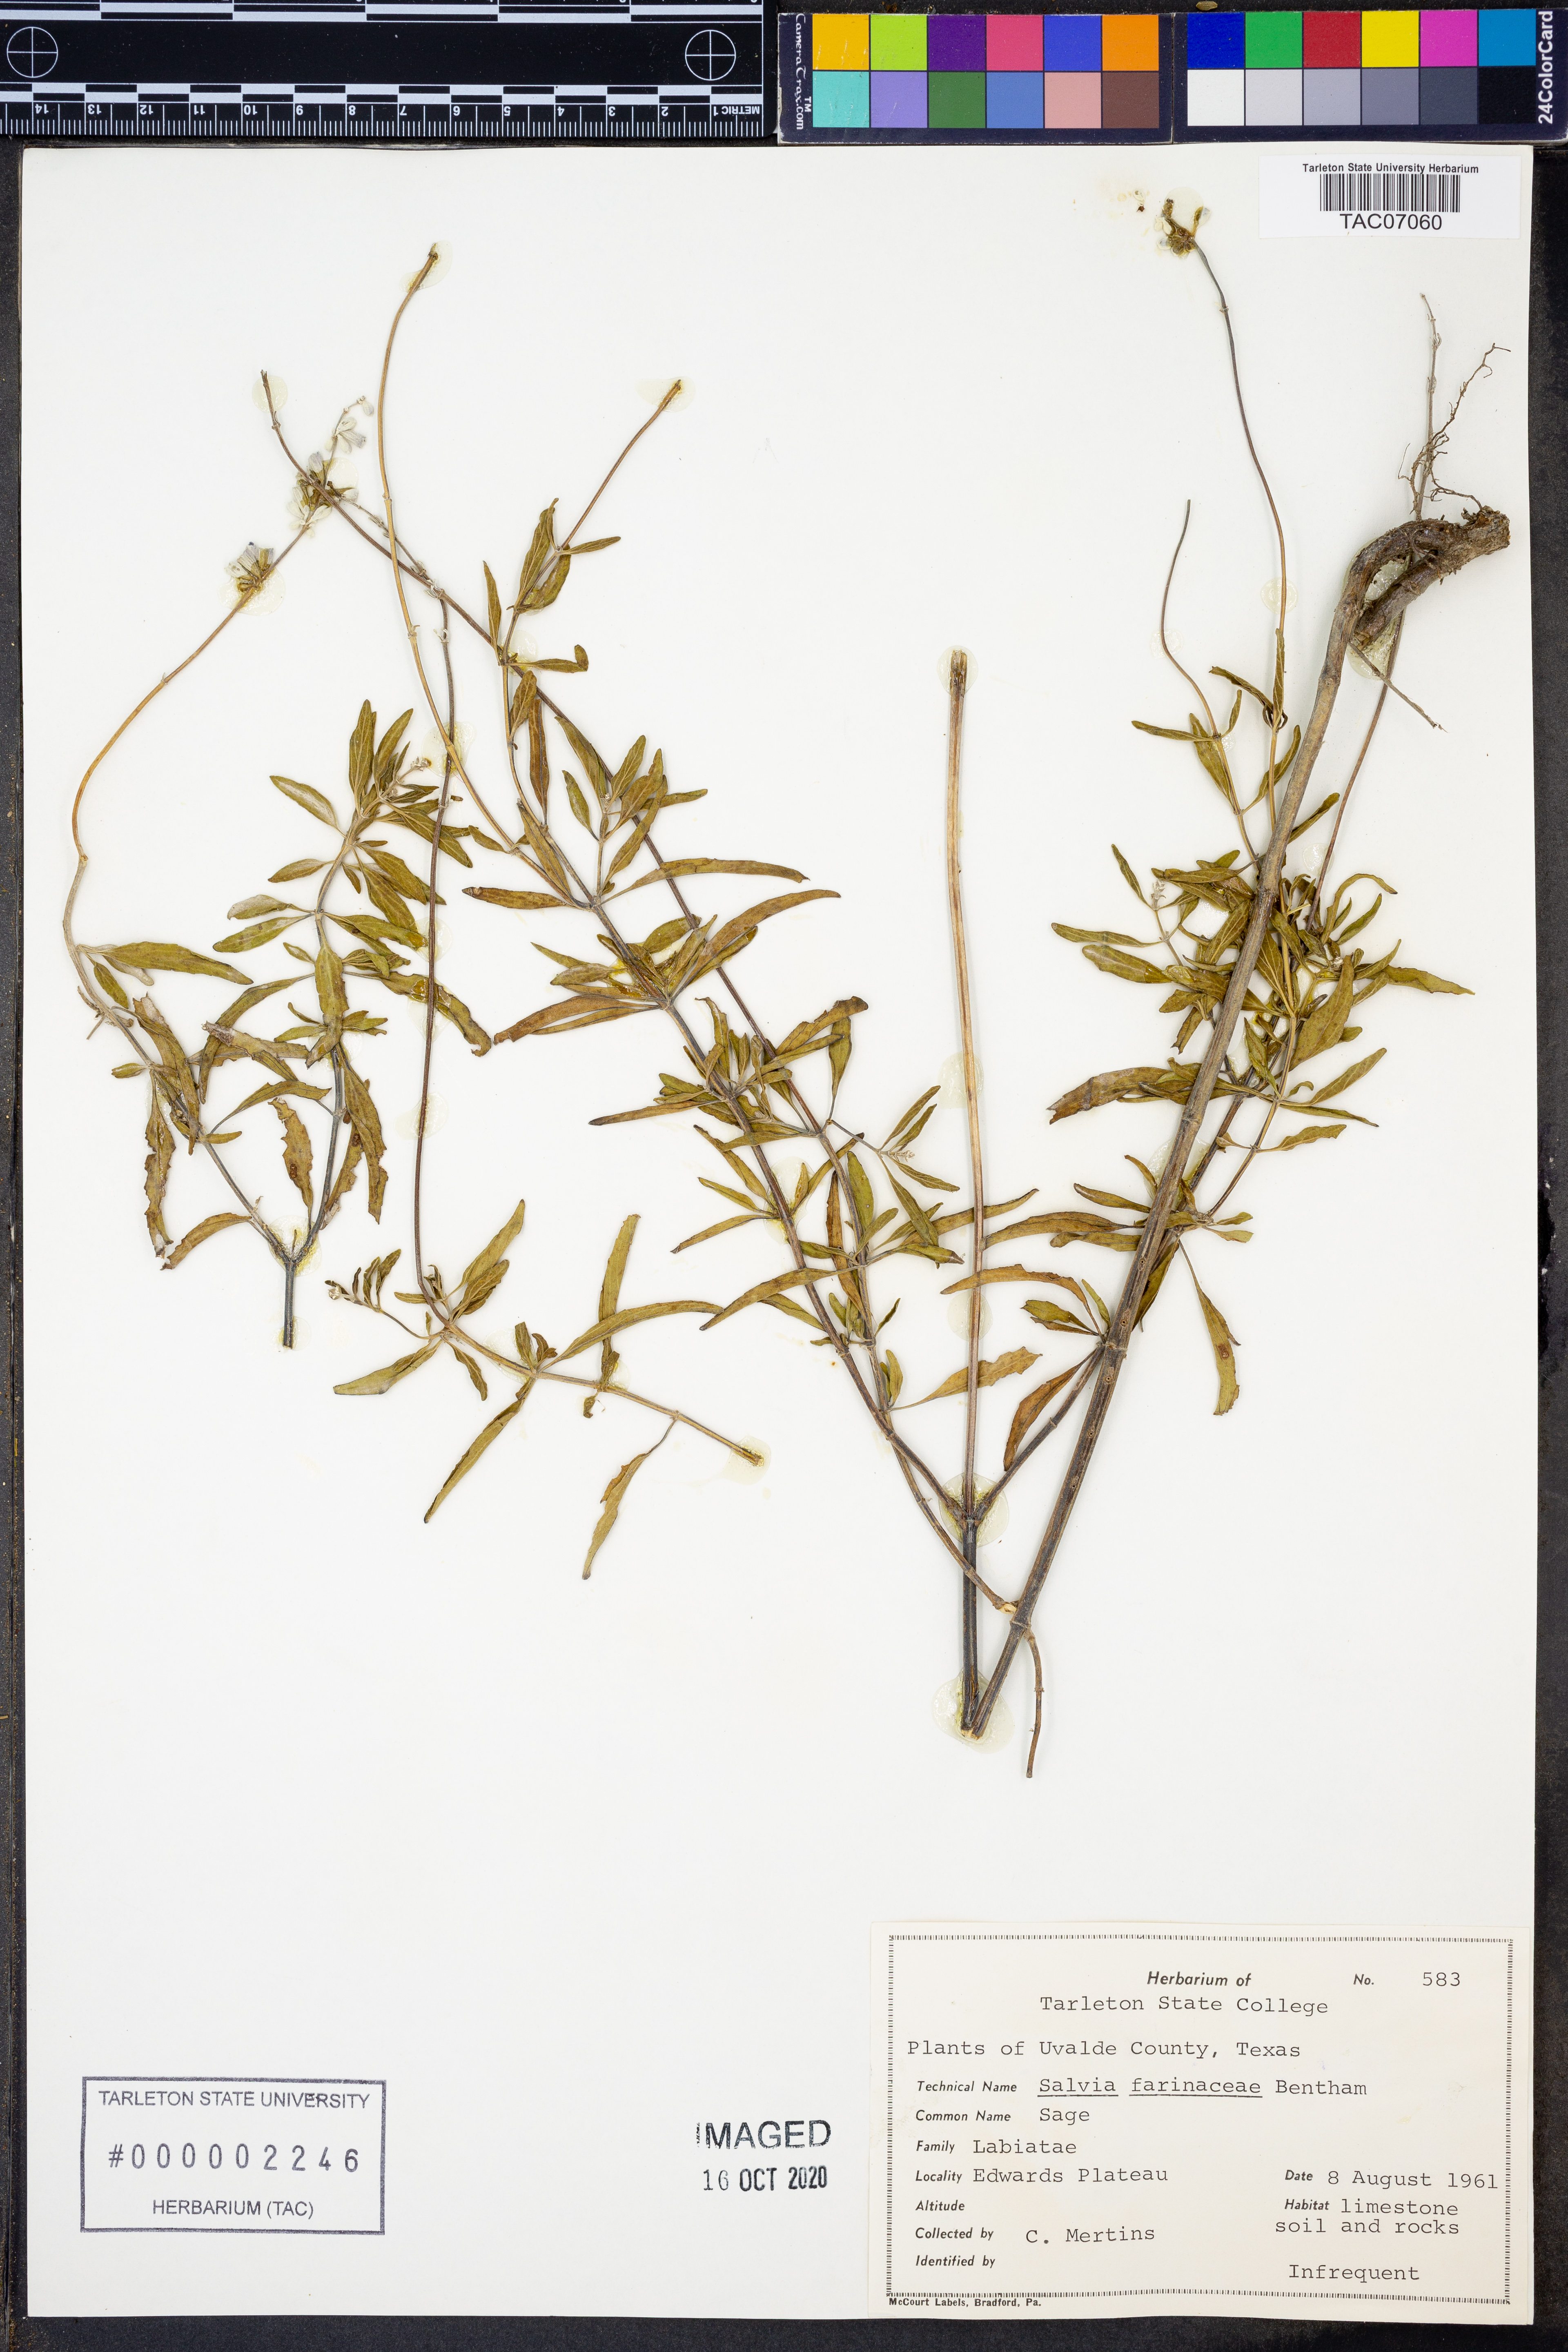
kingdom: Plantae
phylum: Tracheophyta
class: Magnoliopsida
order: Lamiales
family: Lamiaceae
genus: Salvia
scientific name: Salvia farinacea
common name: Mealy sage
